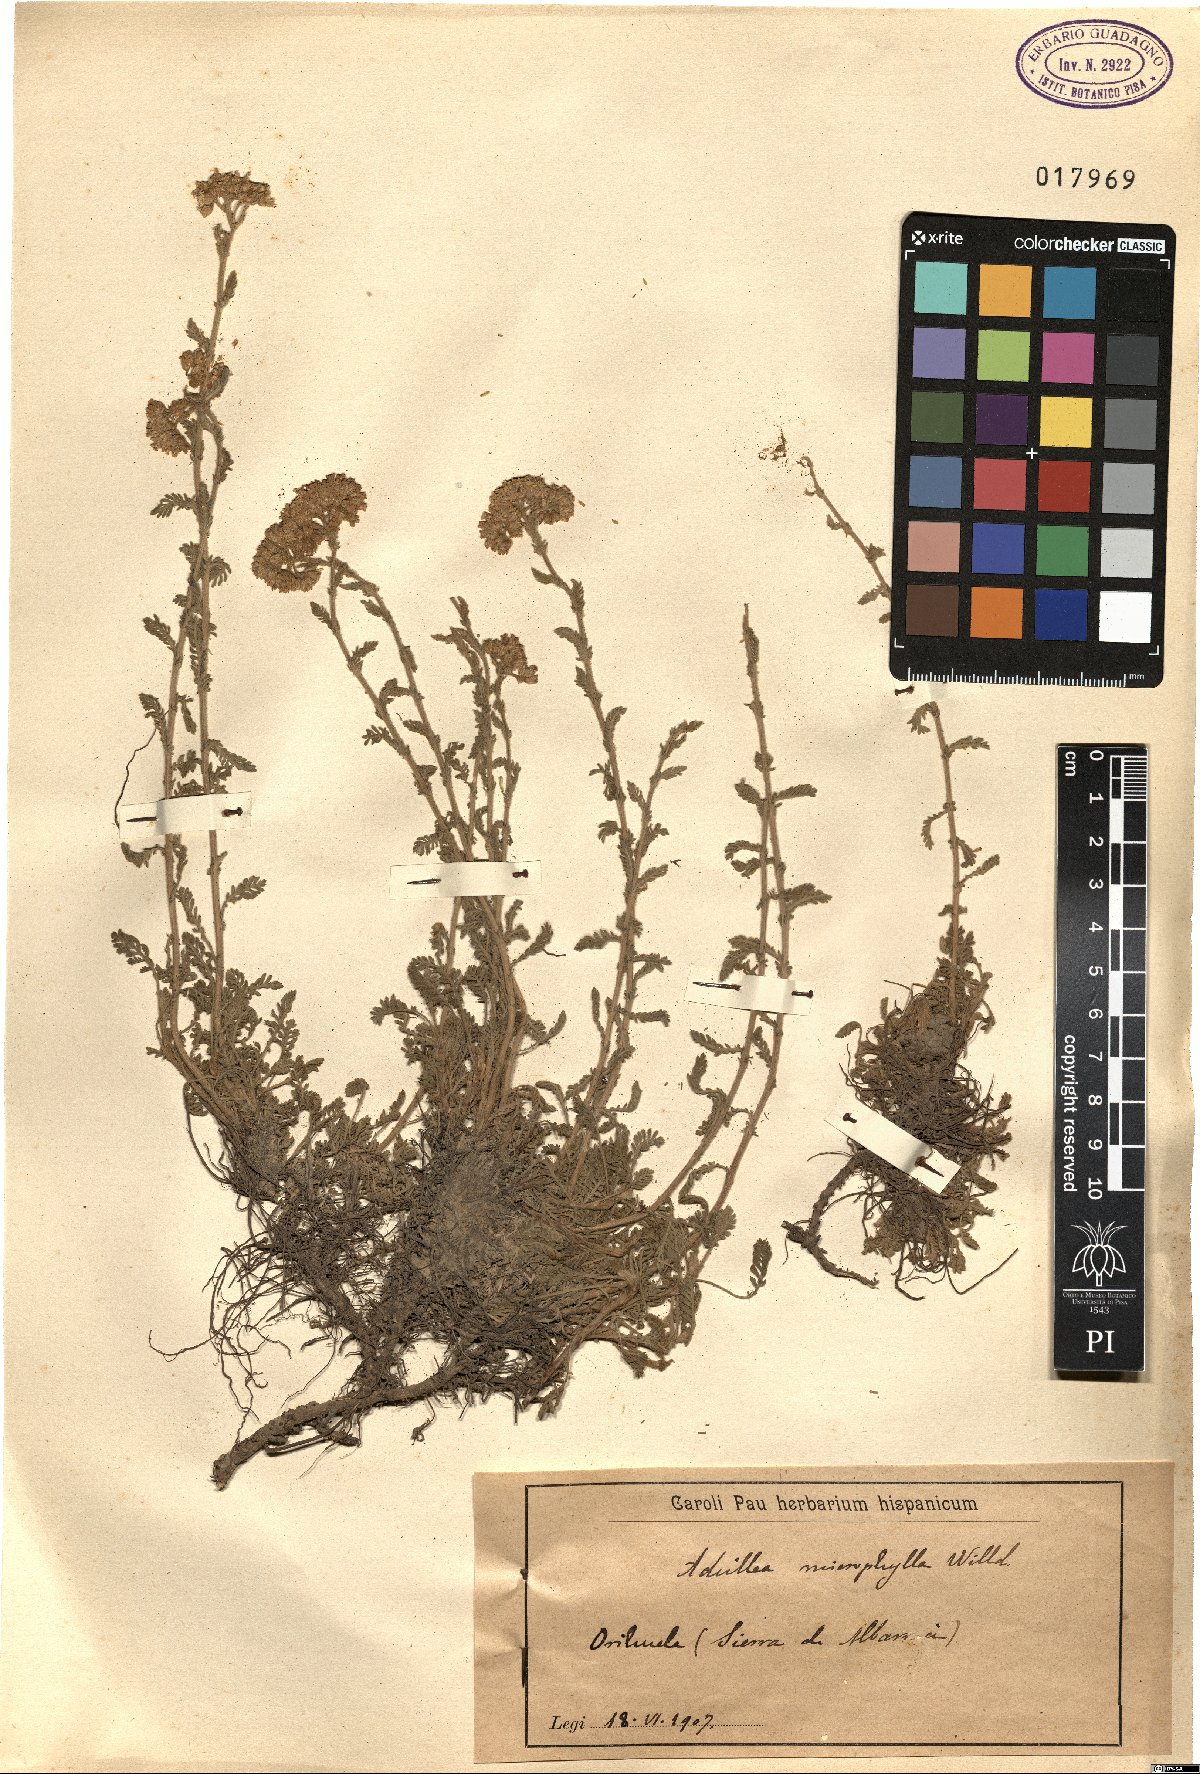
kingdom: Plantae
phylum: Tracheophyta
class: Magnoliopsida
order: Asterales
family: Asteraceae
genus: Achillea
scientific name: Achillea odorata
